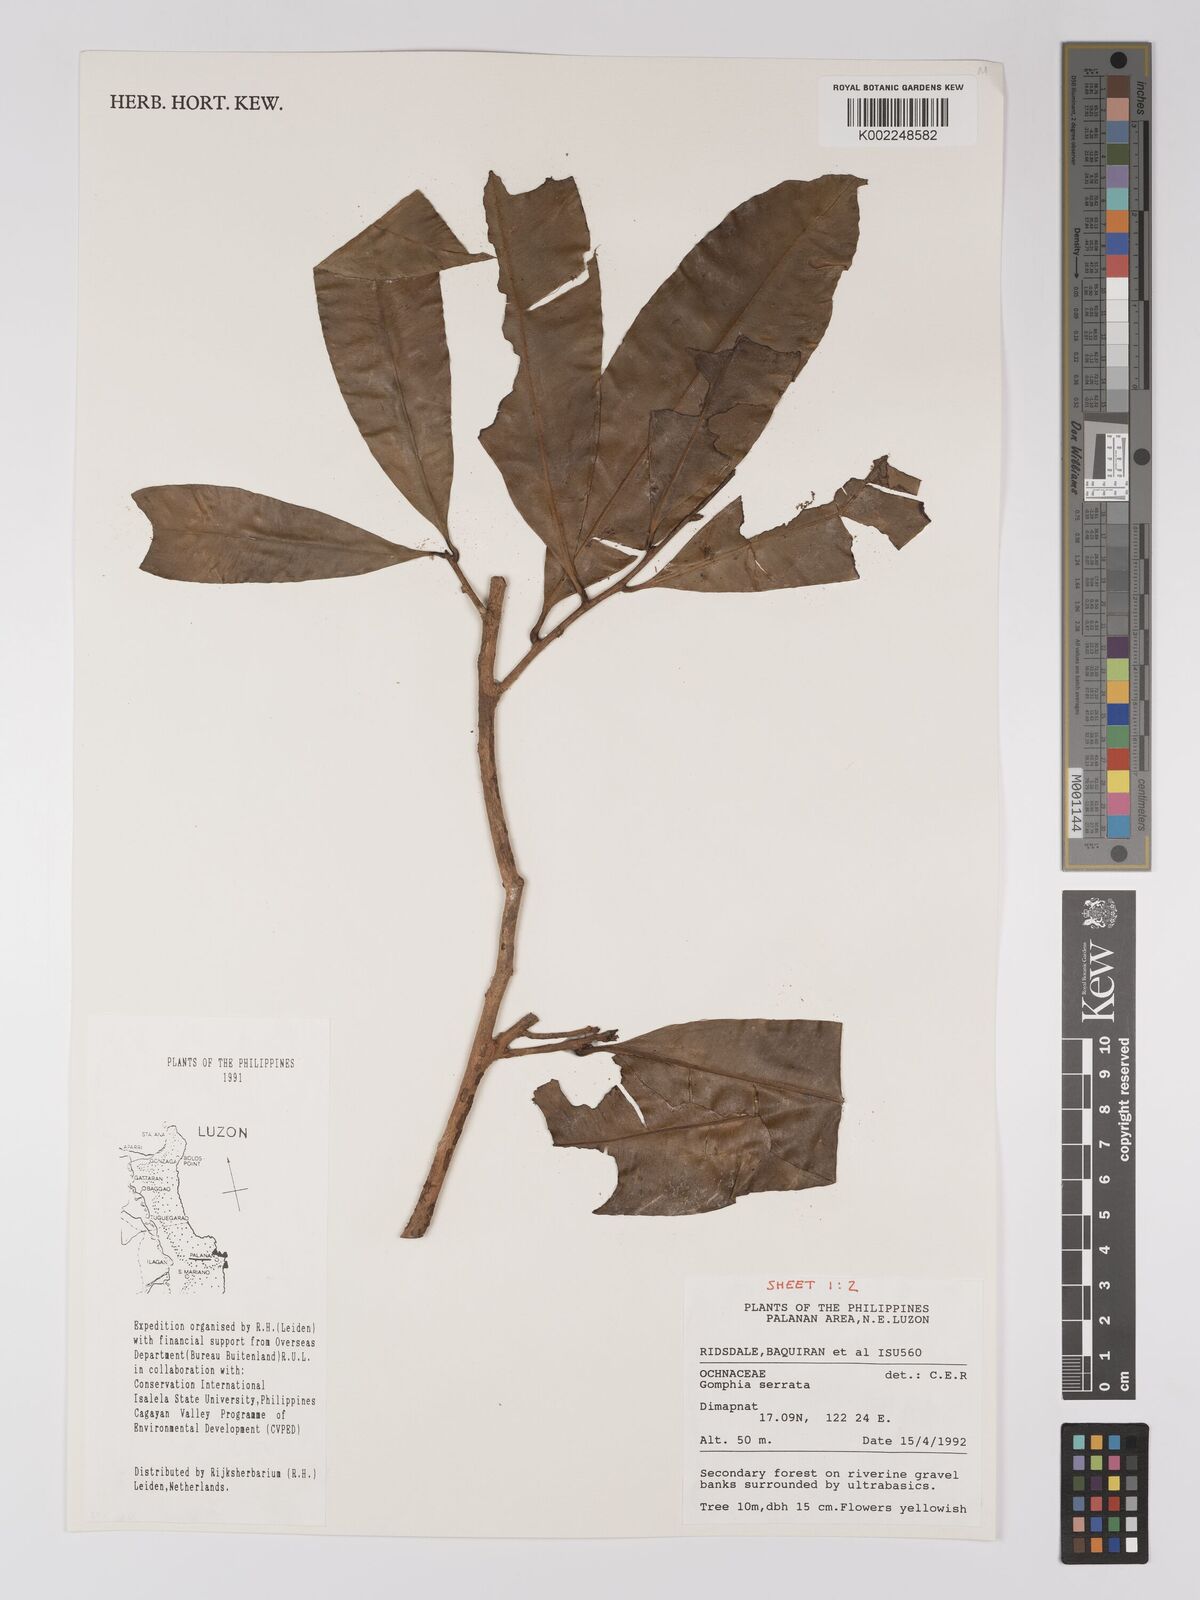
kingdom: Plantae
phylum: Tracheophyta
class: Magnoliopsida
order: Malpighiales
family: Ochnaceae
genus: Gomphia
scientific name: Gomphia serrata
